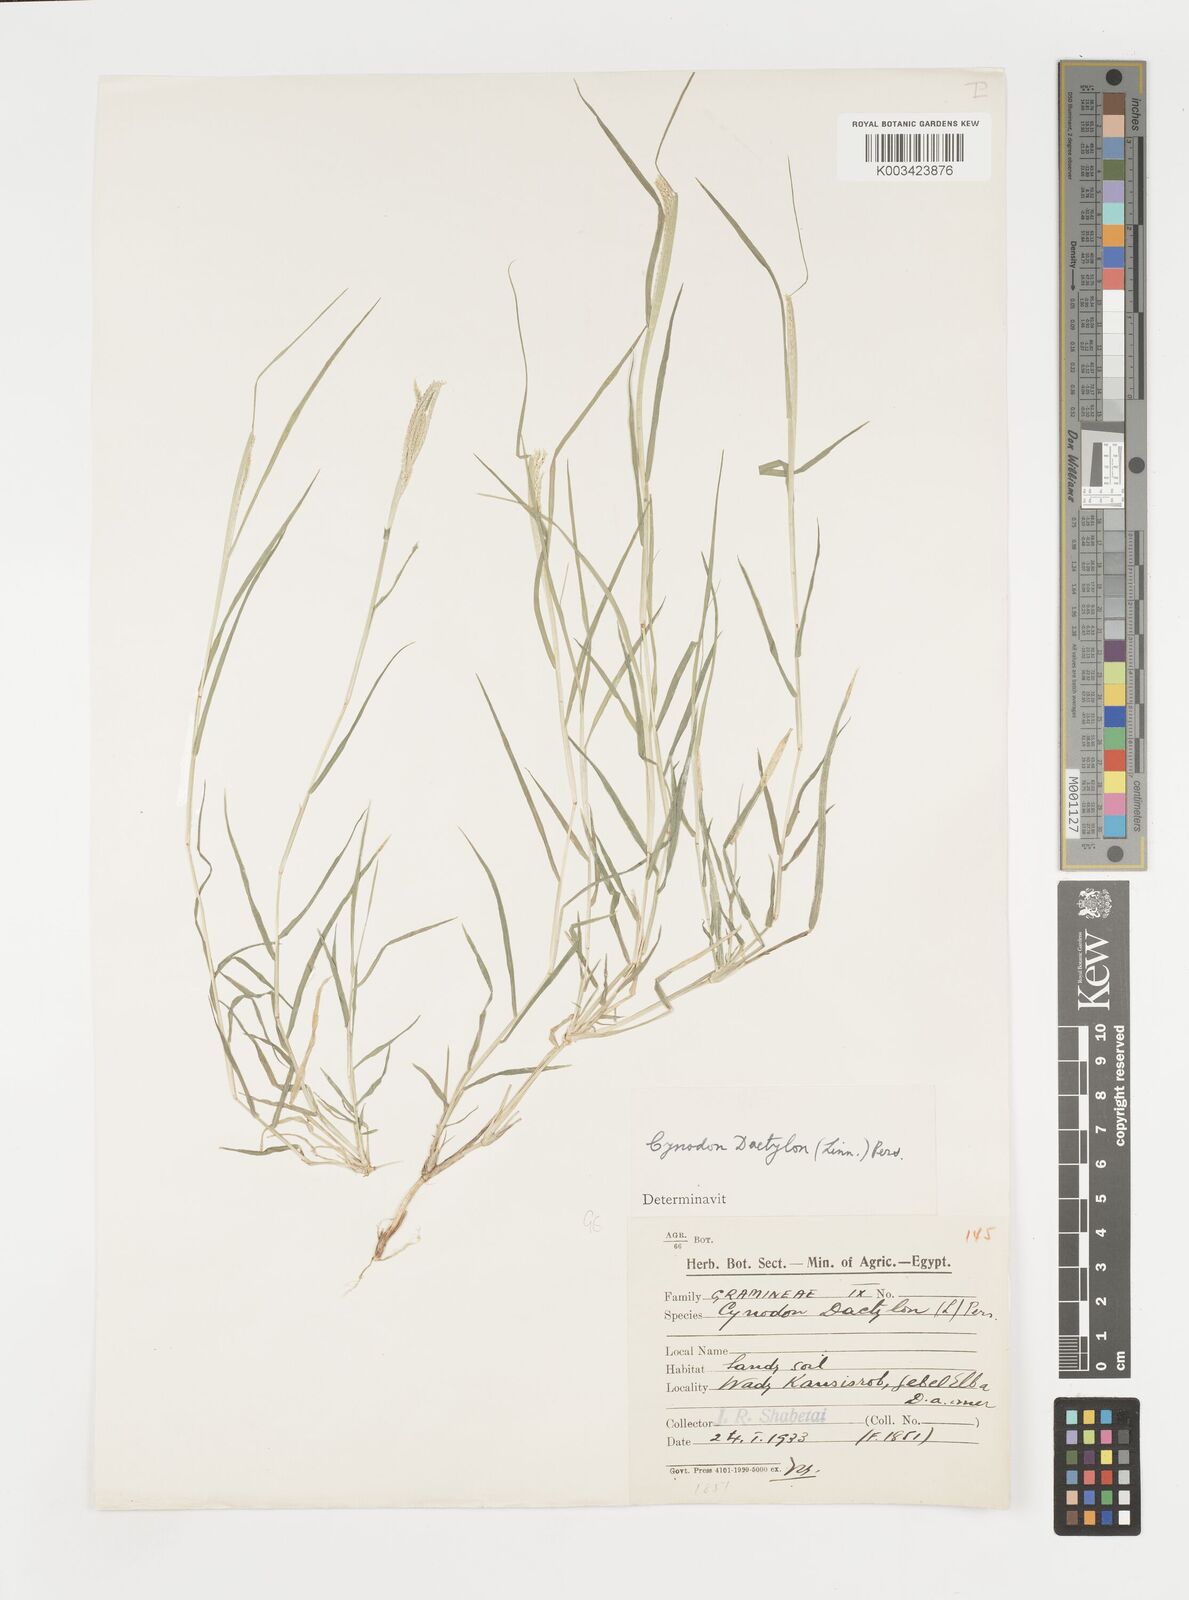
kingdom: Plantae
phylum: Tracheophyta
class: Liliopsida
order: Poales
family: Poaceae
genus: Cynodon
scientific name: Cynodon dactylon
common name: Bermuda grass
